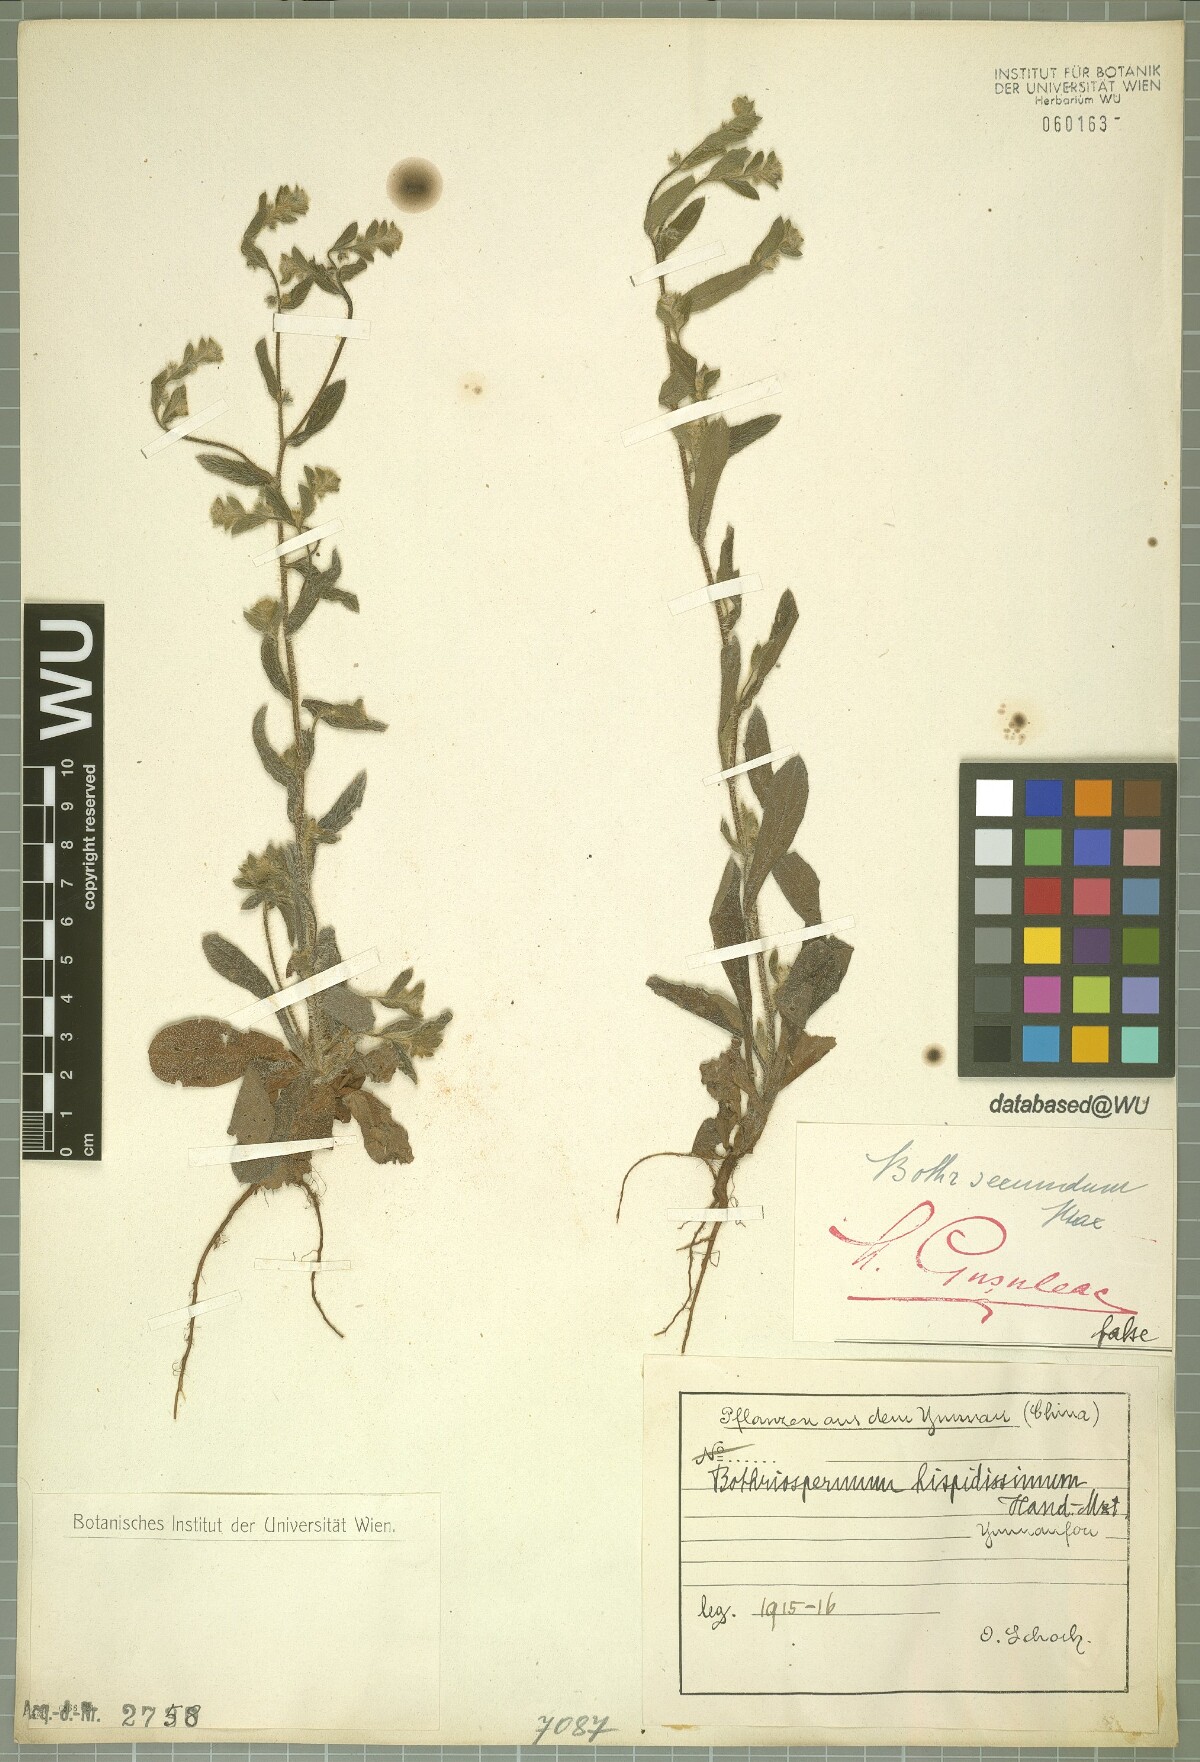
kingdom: Plantae
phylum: Tracheophyta
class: Magnoliopsida
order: Boraginales
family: Boraginaceae
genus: Bothriospermum
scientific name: Bothriospermum hispidissimum
